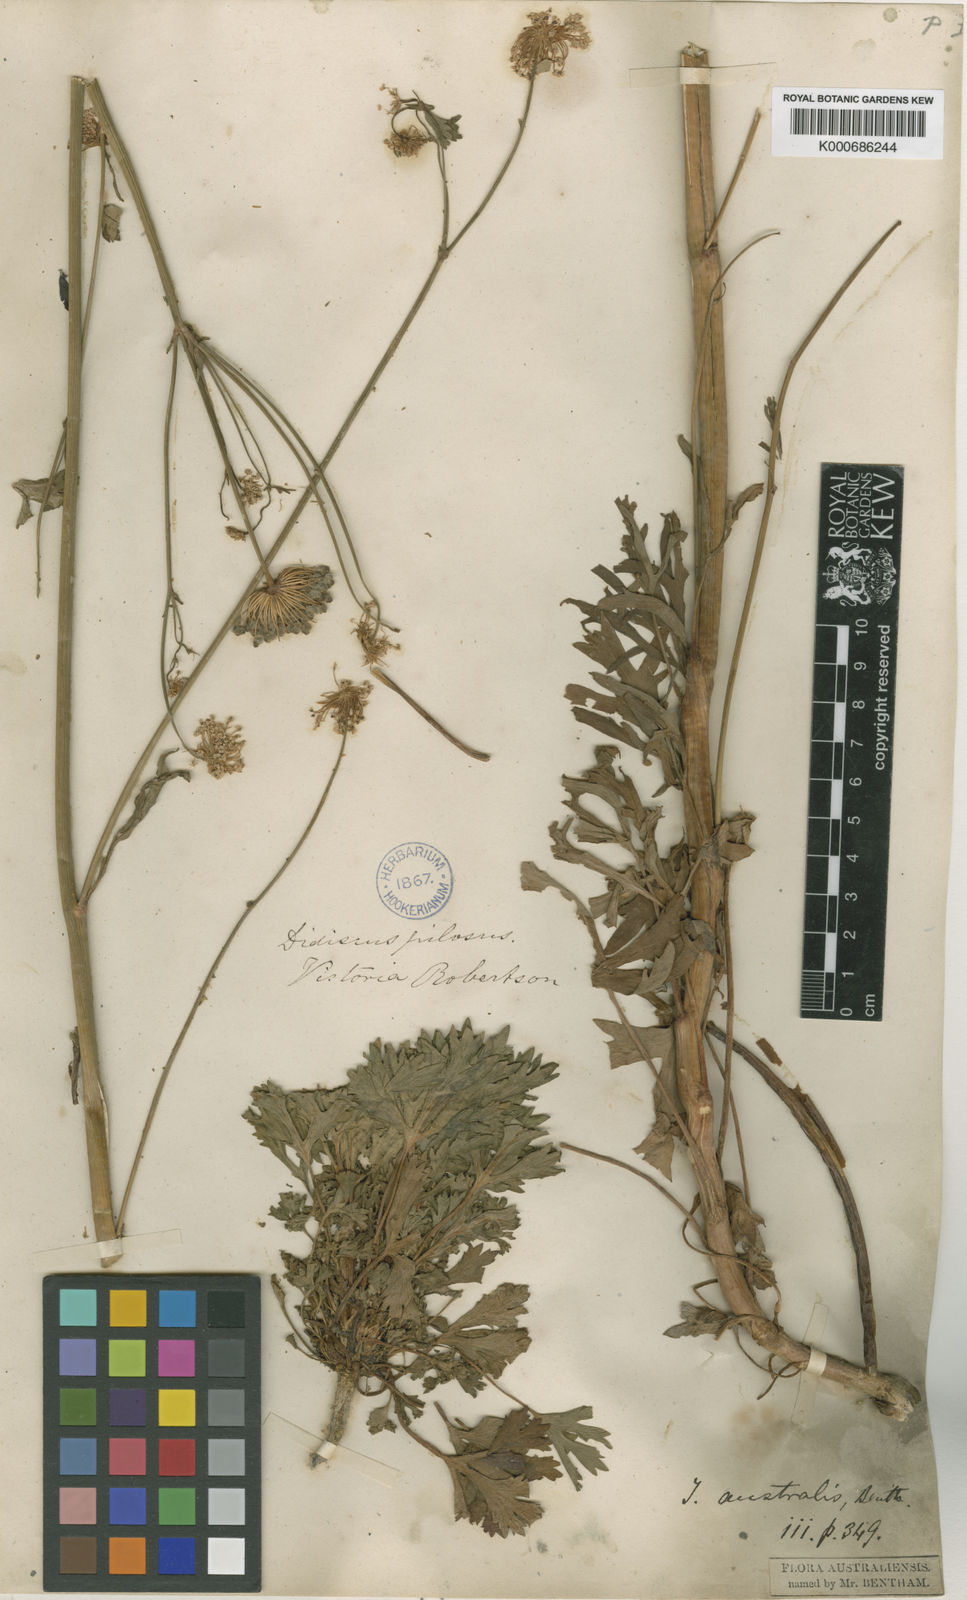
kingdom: Plantae
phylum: Tracheophyta
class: Magnoliopsida
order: Apiales
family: Araliaceae
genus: Trachymene
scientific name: Trachymene composita
